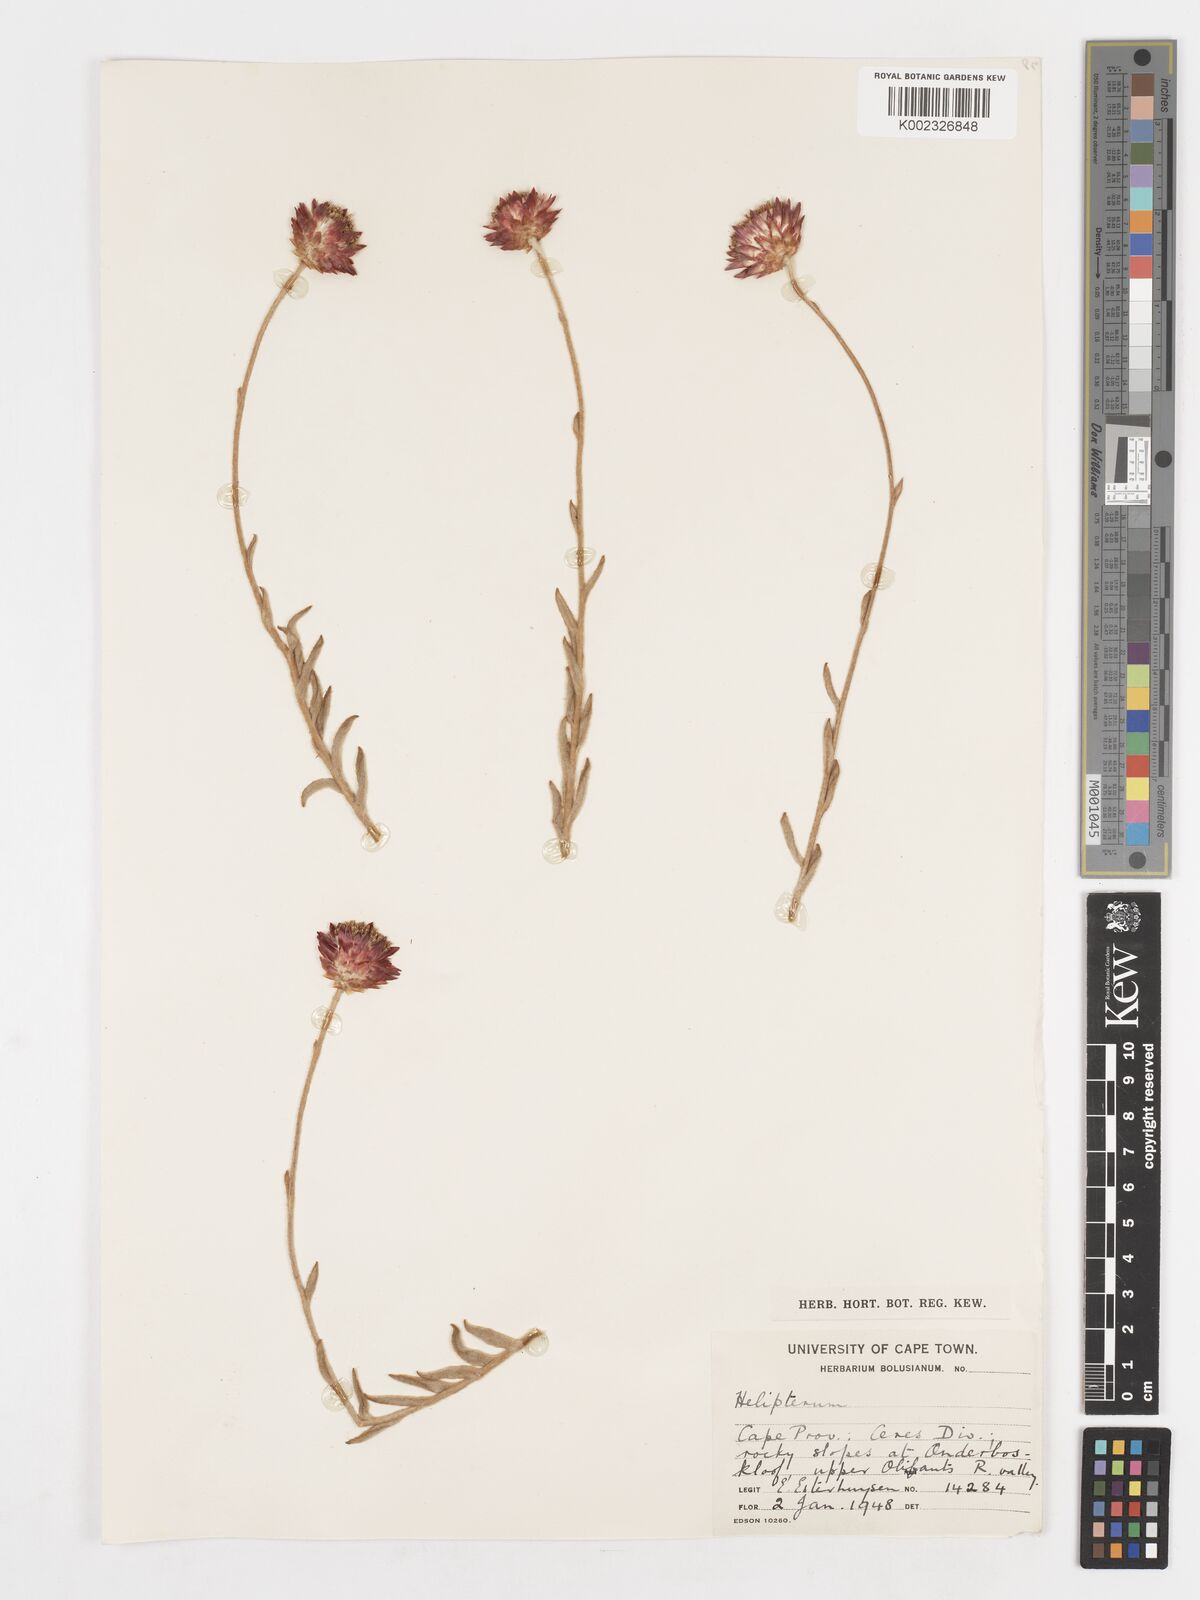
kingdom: Plantae
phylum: Tracheophyta
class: Magnoliopsida
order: Asterales
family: Asteraceae
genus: Syncarpha
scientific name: Syncarpha
